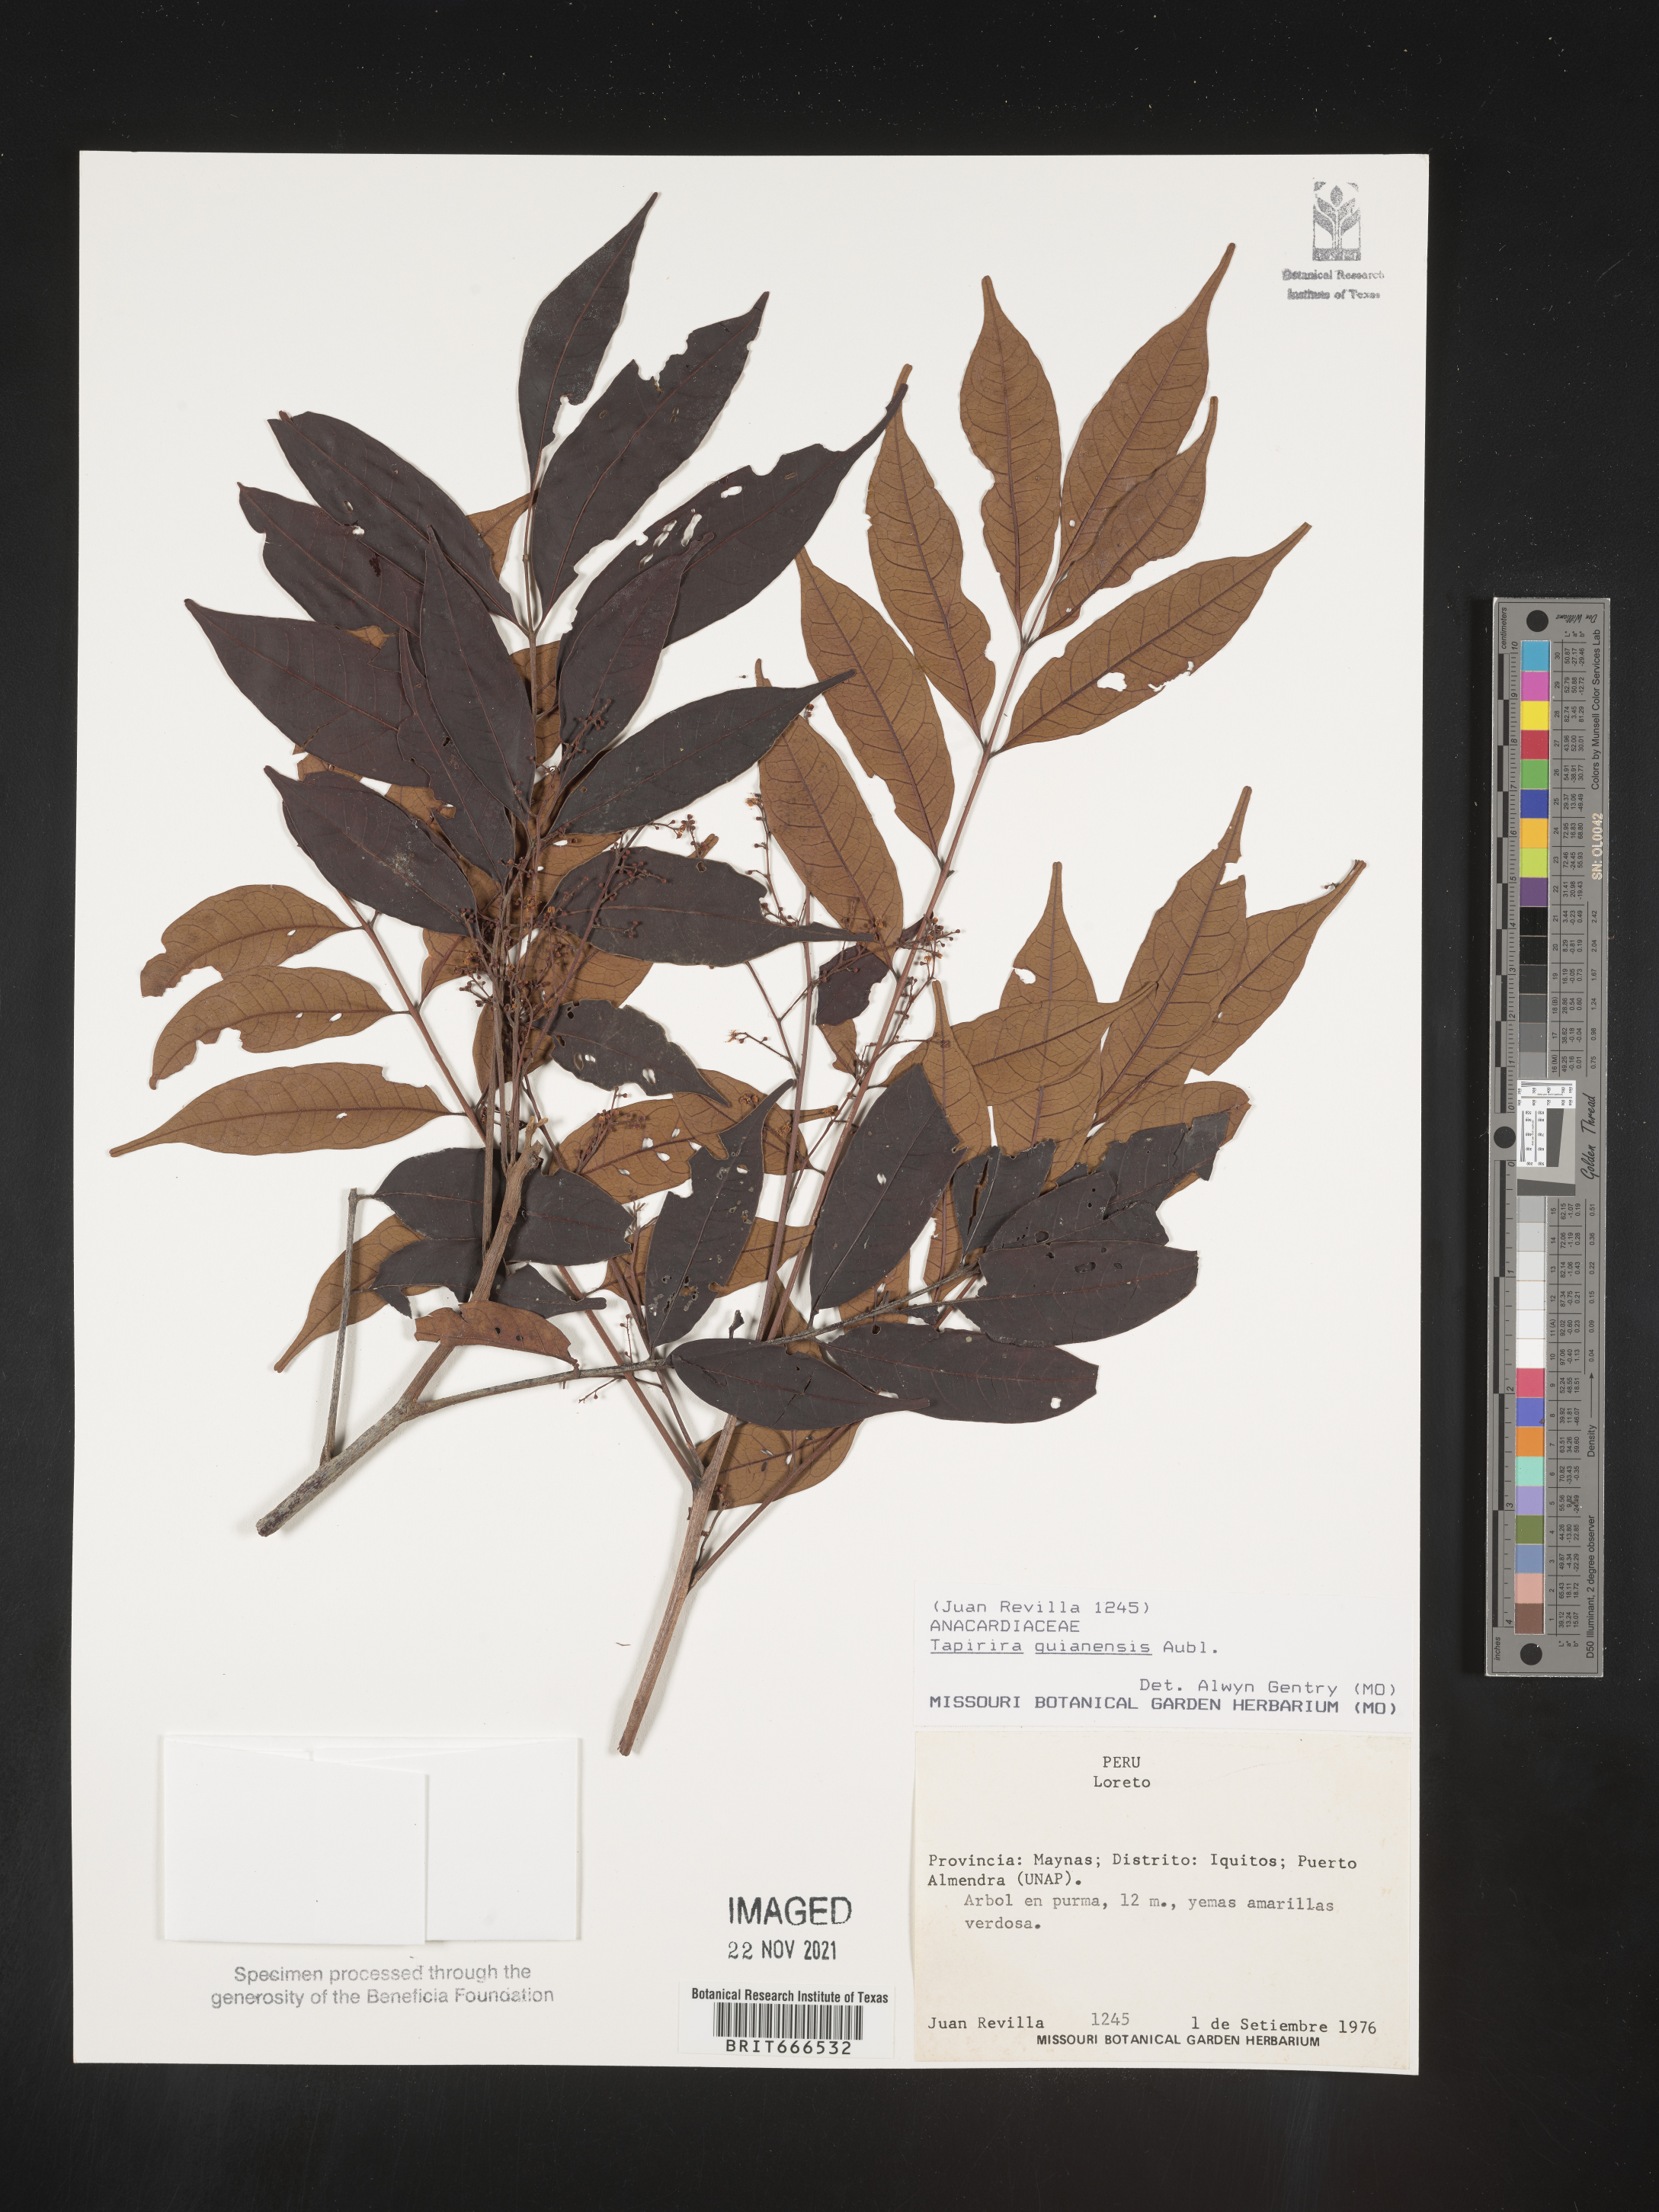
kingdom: Plantae
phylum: Tracheophyta
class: Magnoliopsida
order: Sapindales
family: Anacardiaceae
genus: Tapirira
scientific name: Tapirira
